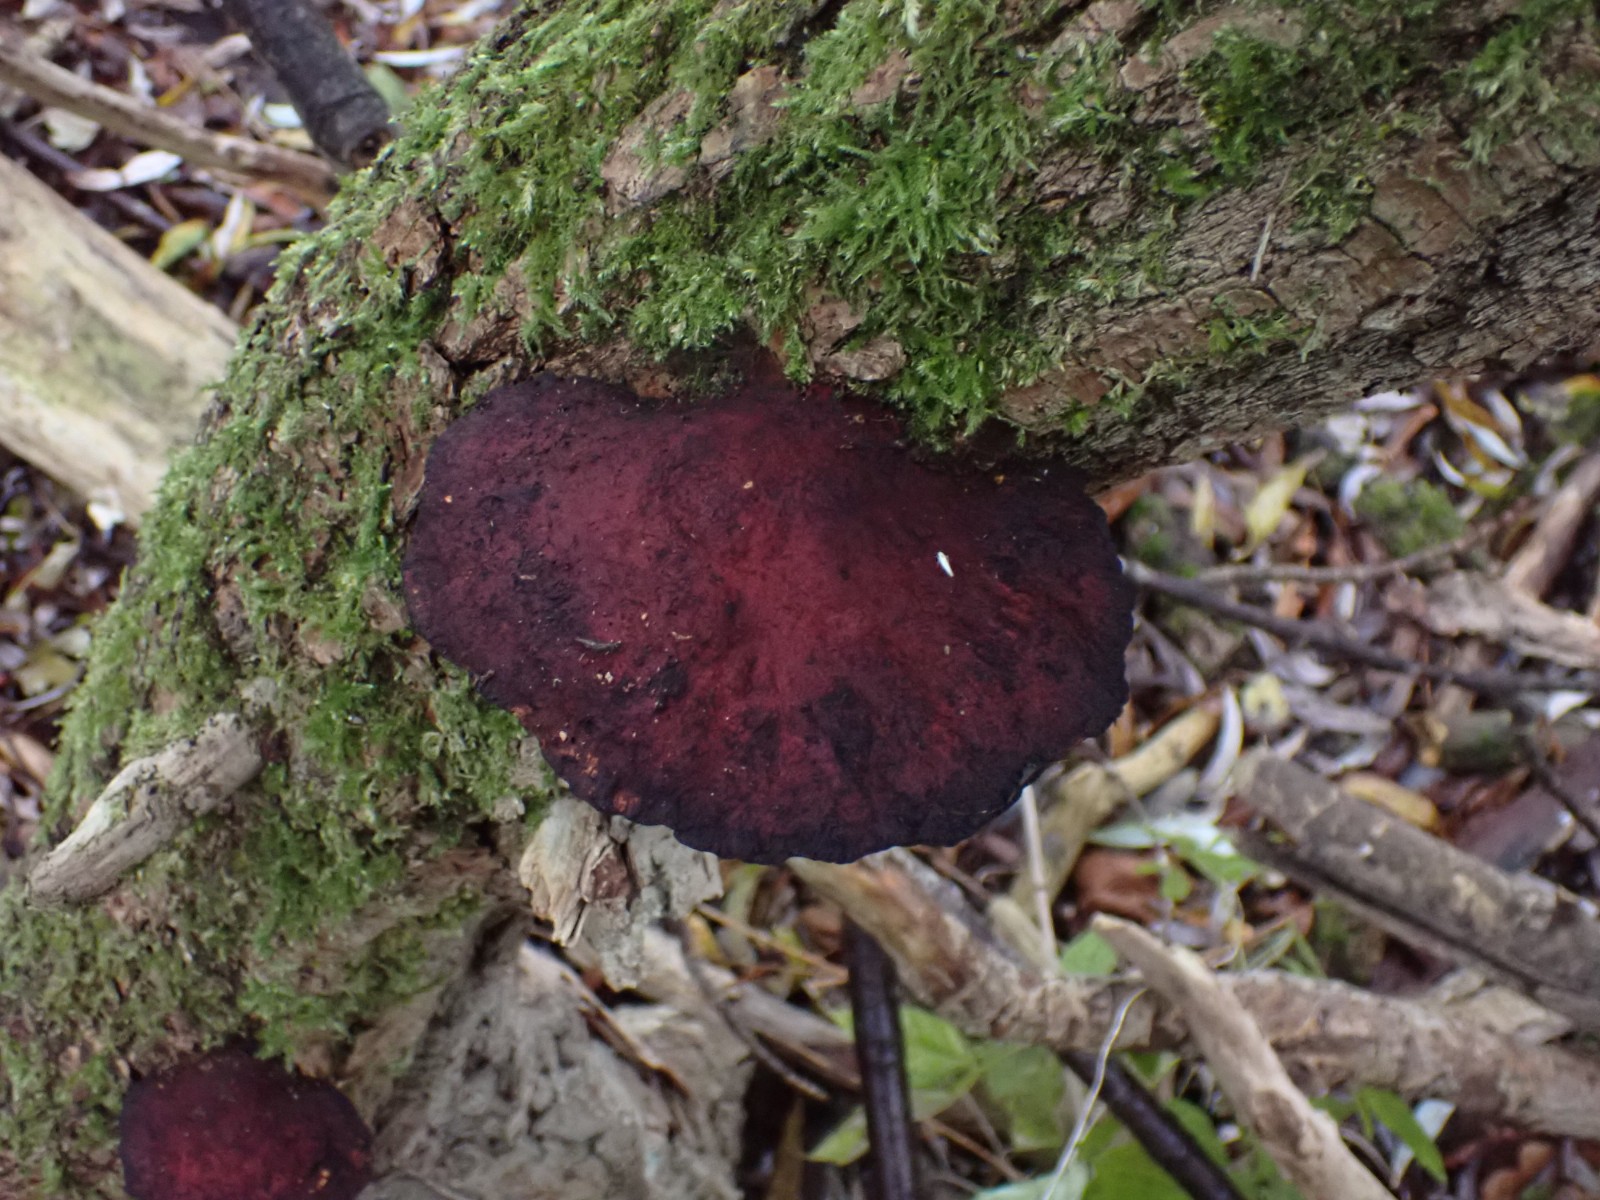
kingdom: Fungi
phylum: Basidiomycota
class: Agaricomycetes
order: Polyporales
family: Polyporaceae
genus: Daedaleopsis
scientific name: Daedaleopsis confragosa
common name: rødmende læderporesvamp
